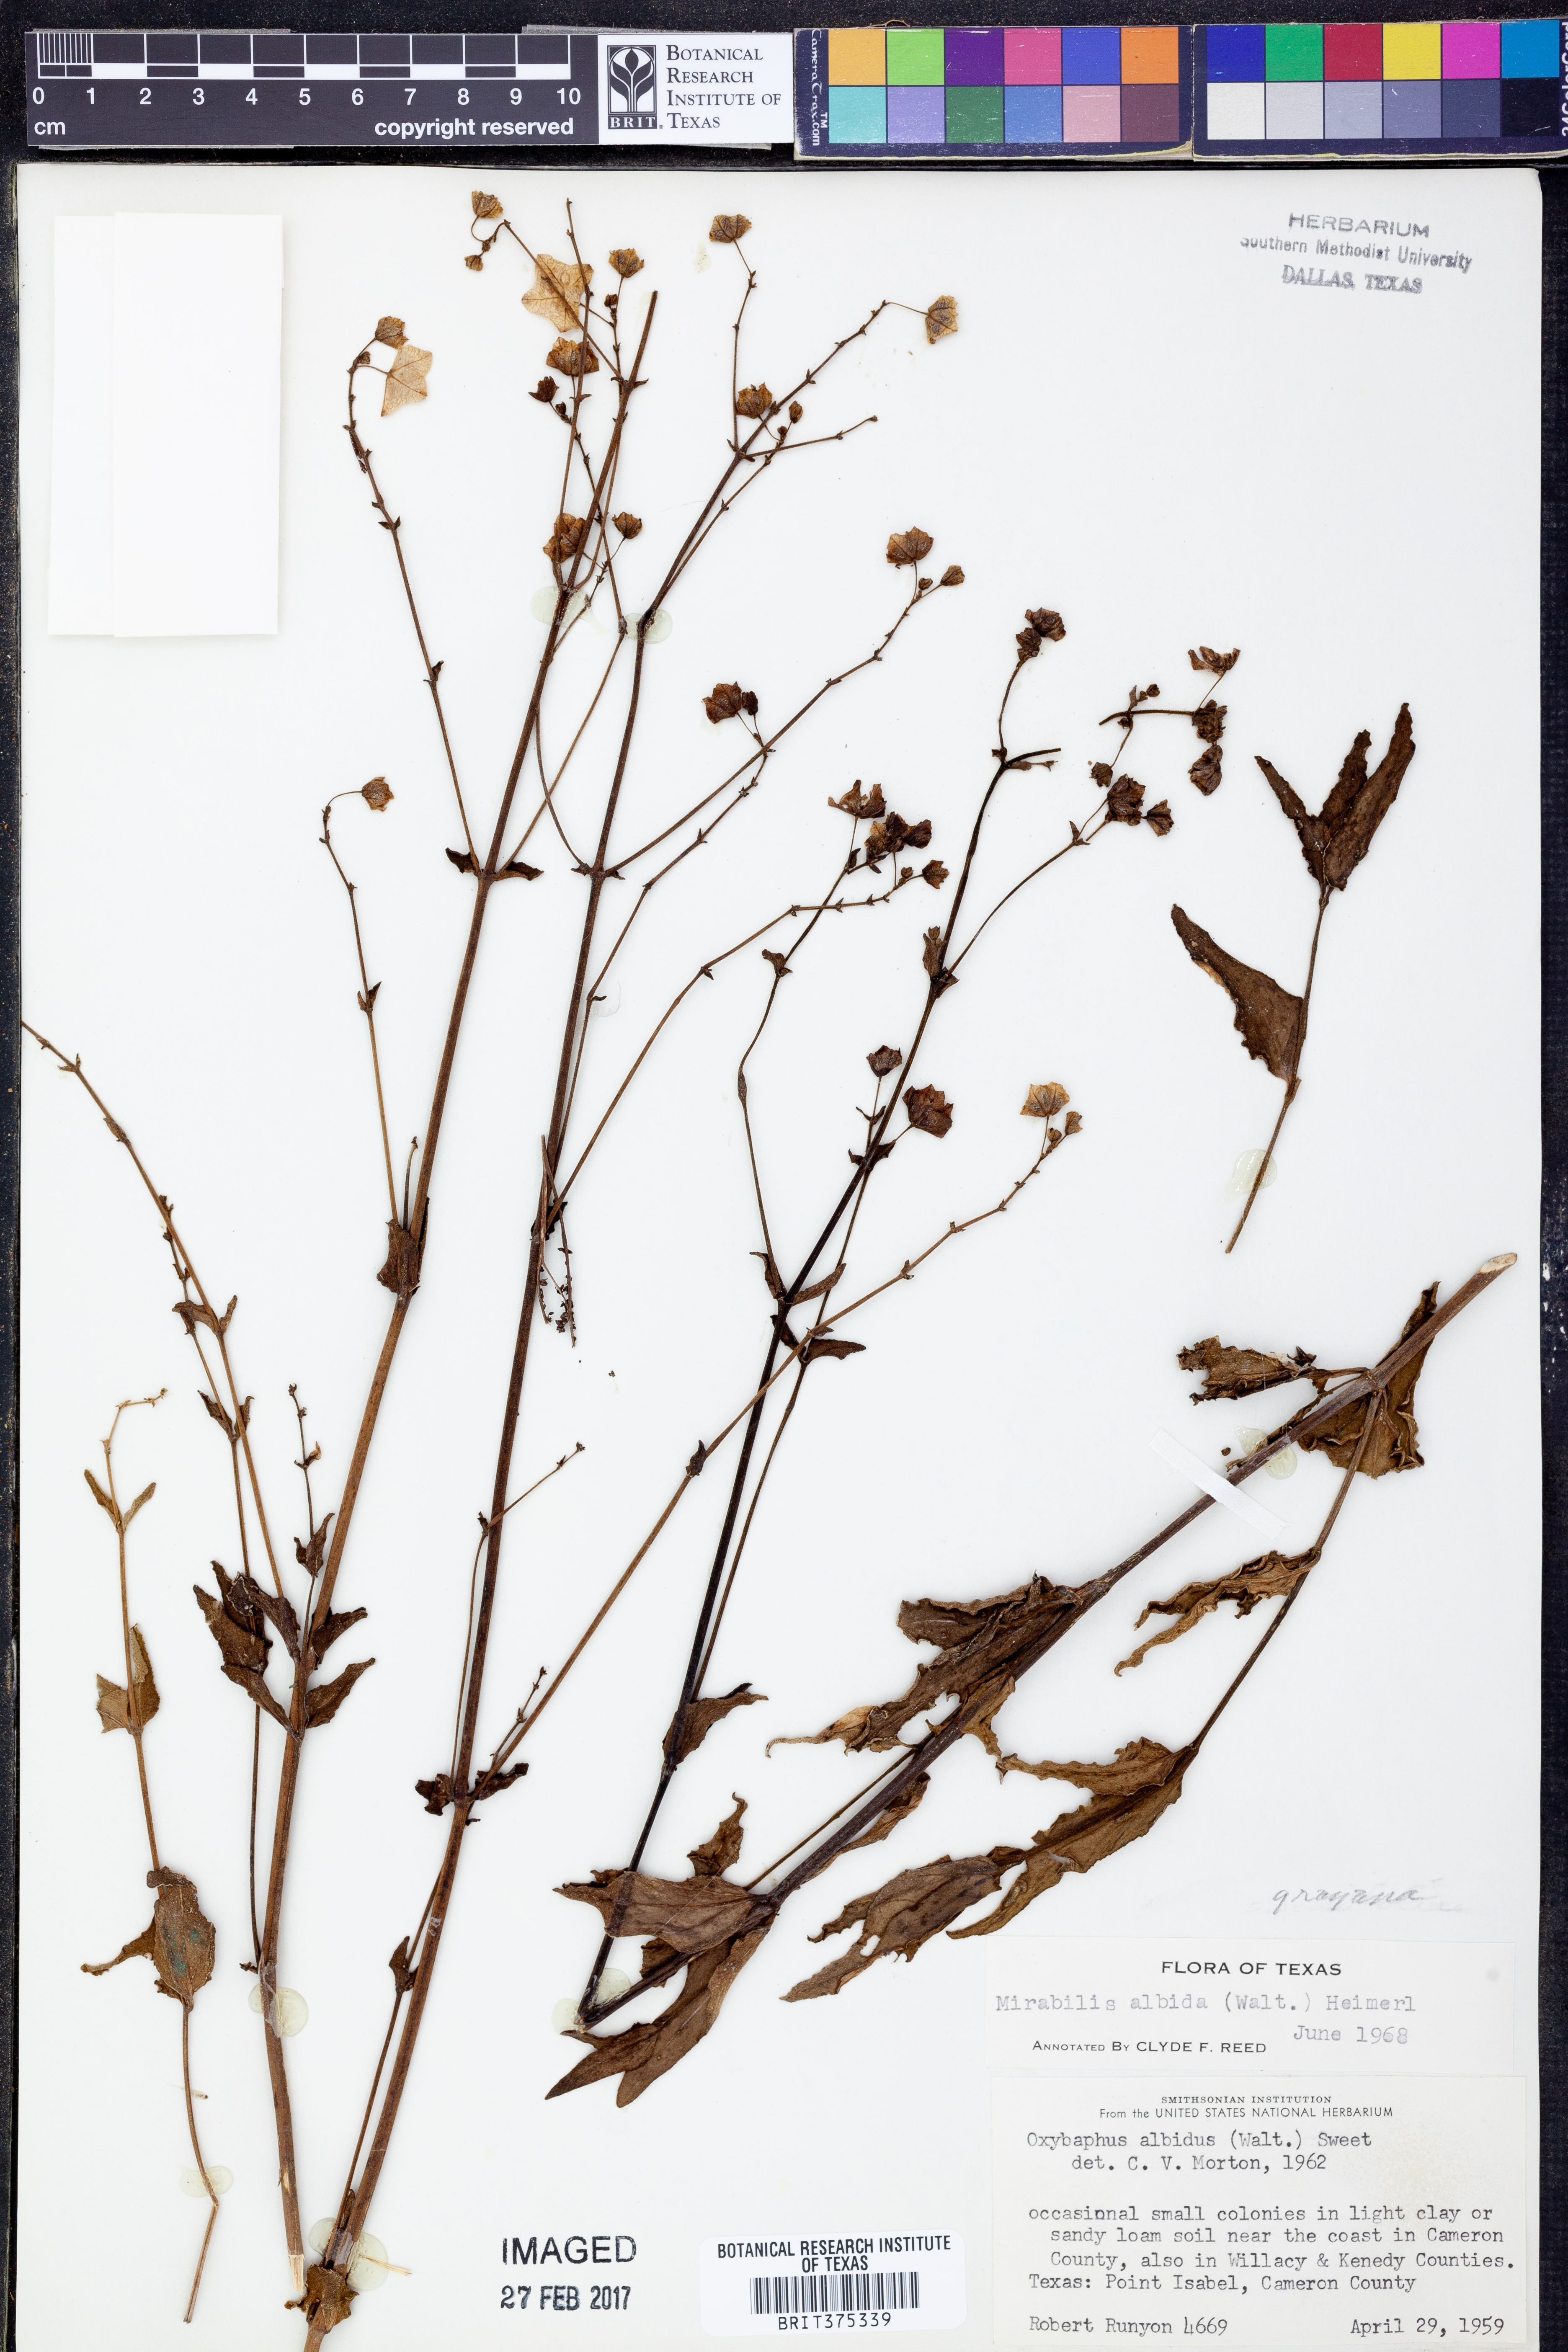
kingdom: Plantae
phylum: Tracheophyta
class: Magnoliopsida
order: Caryophyllales
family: Nyctaginaceae
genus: Mirabilis
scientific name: Mirabilis albida
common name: Hairy four-o'clock
